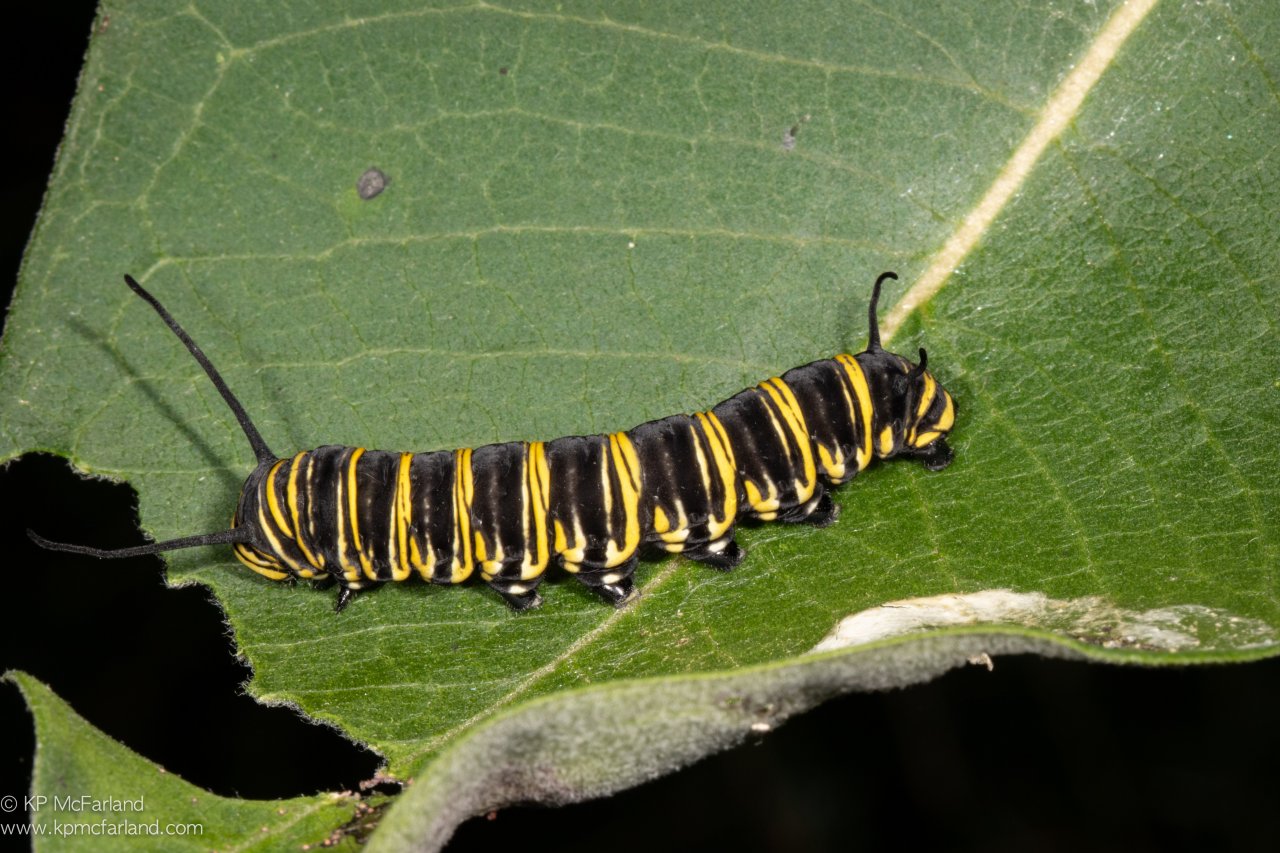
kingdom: Animalia
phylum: Arthropoda
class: Insecta
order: Lepidoptera
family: Nymphalidae
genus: Danaus
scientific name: Danaus plexippus
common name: Monarch
